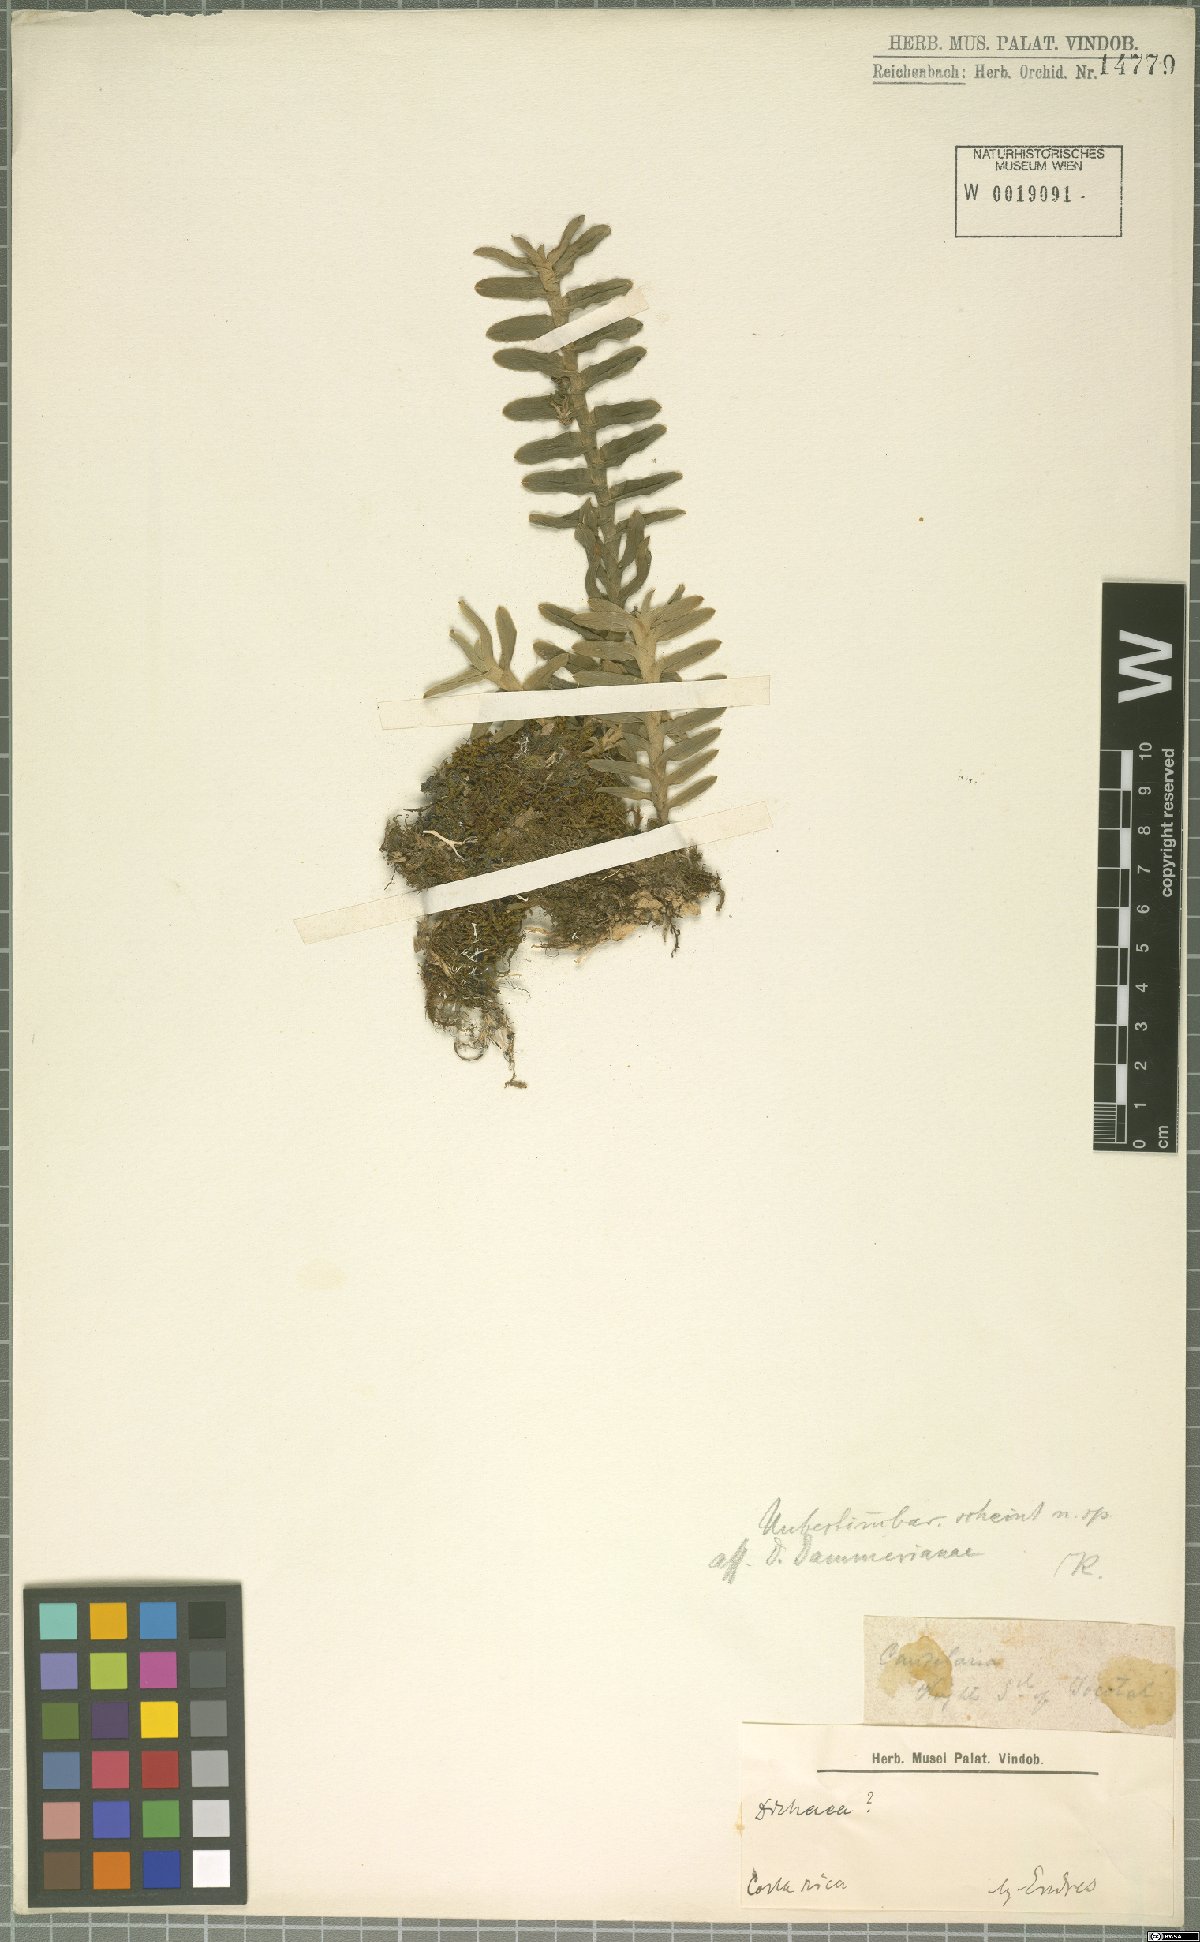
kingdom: Plantae
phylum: Tracheophyta
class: Liliopsida
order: Asparagales
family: Orchidaceae
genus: Dichaea
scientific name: Dichaea dammeriana
